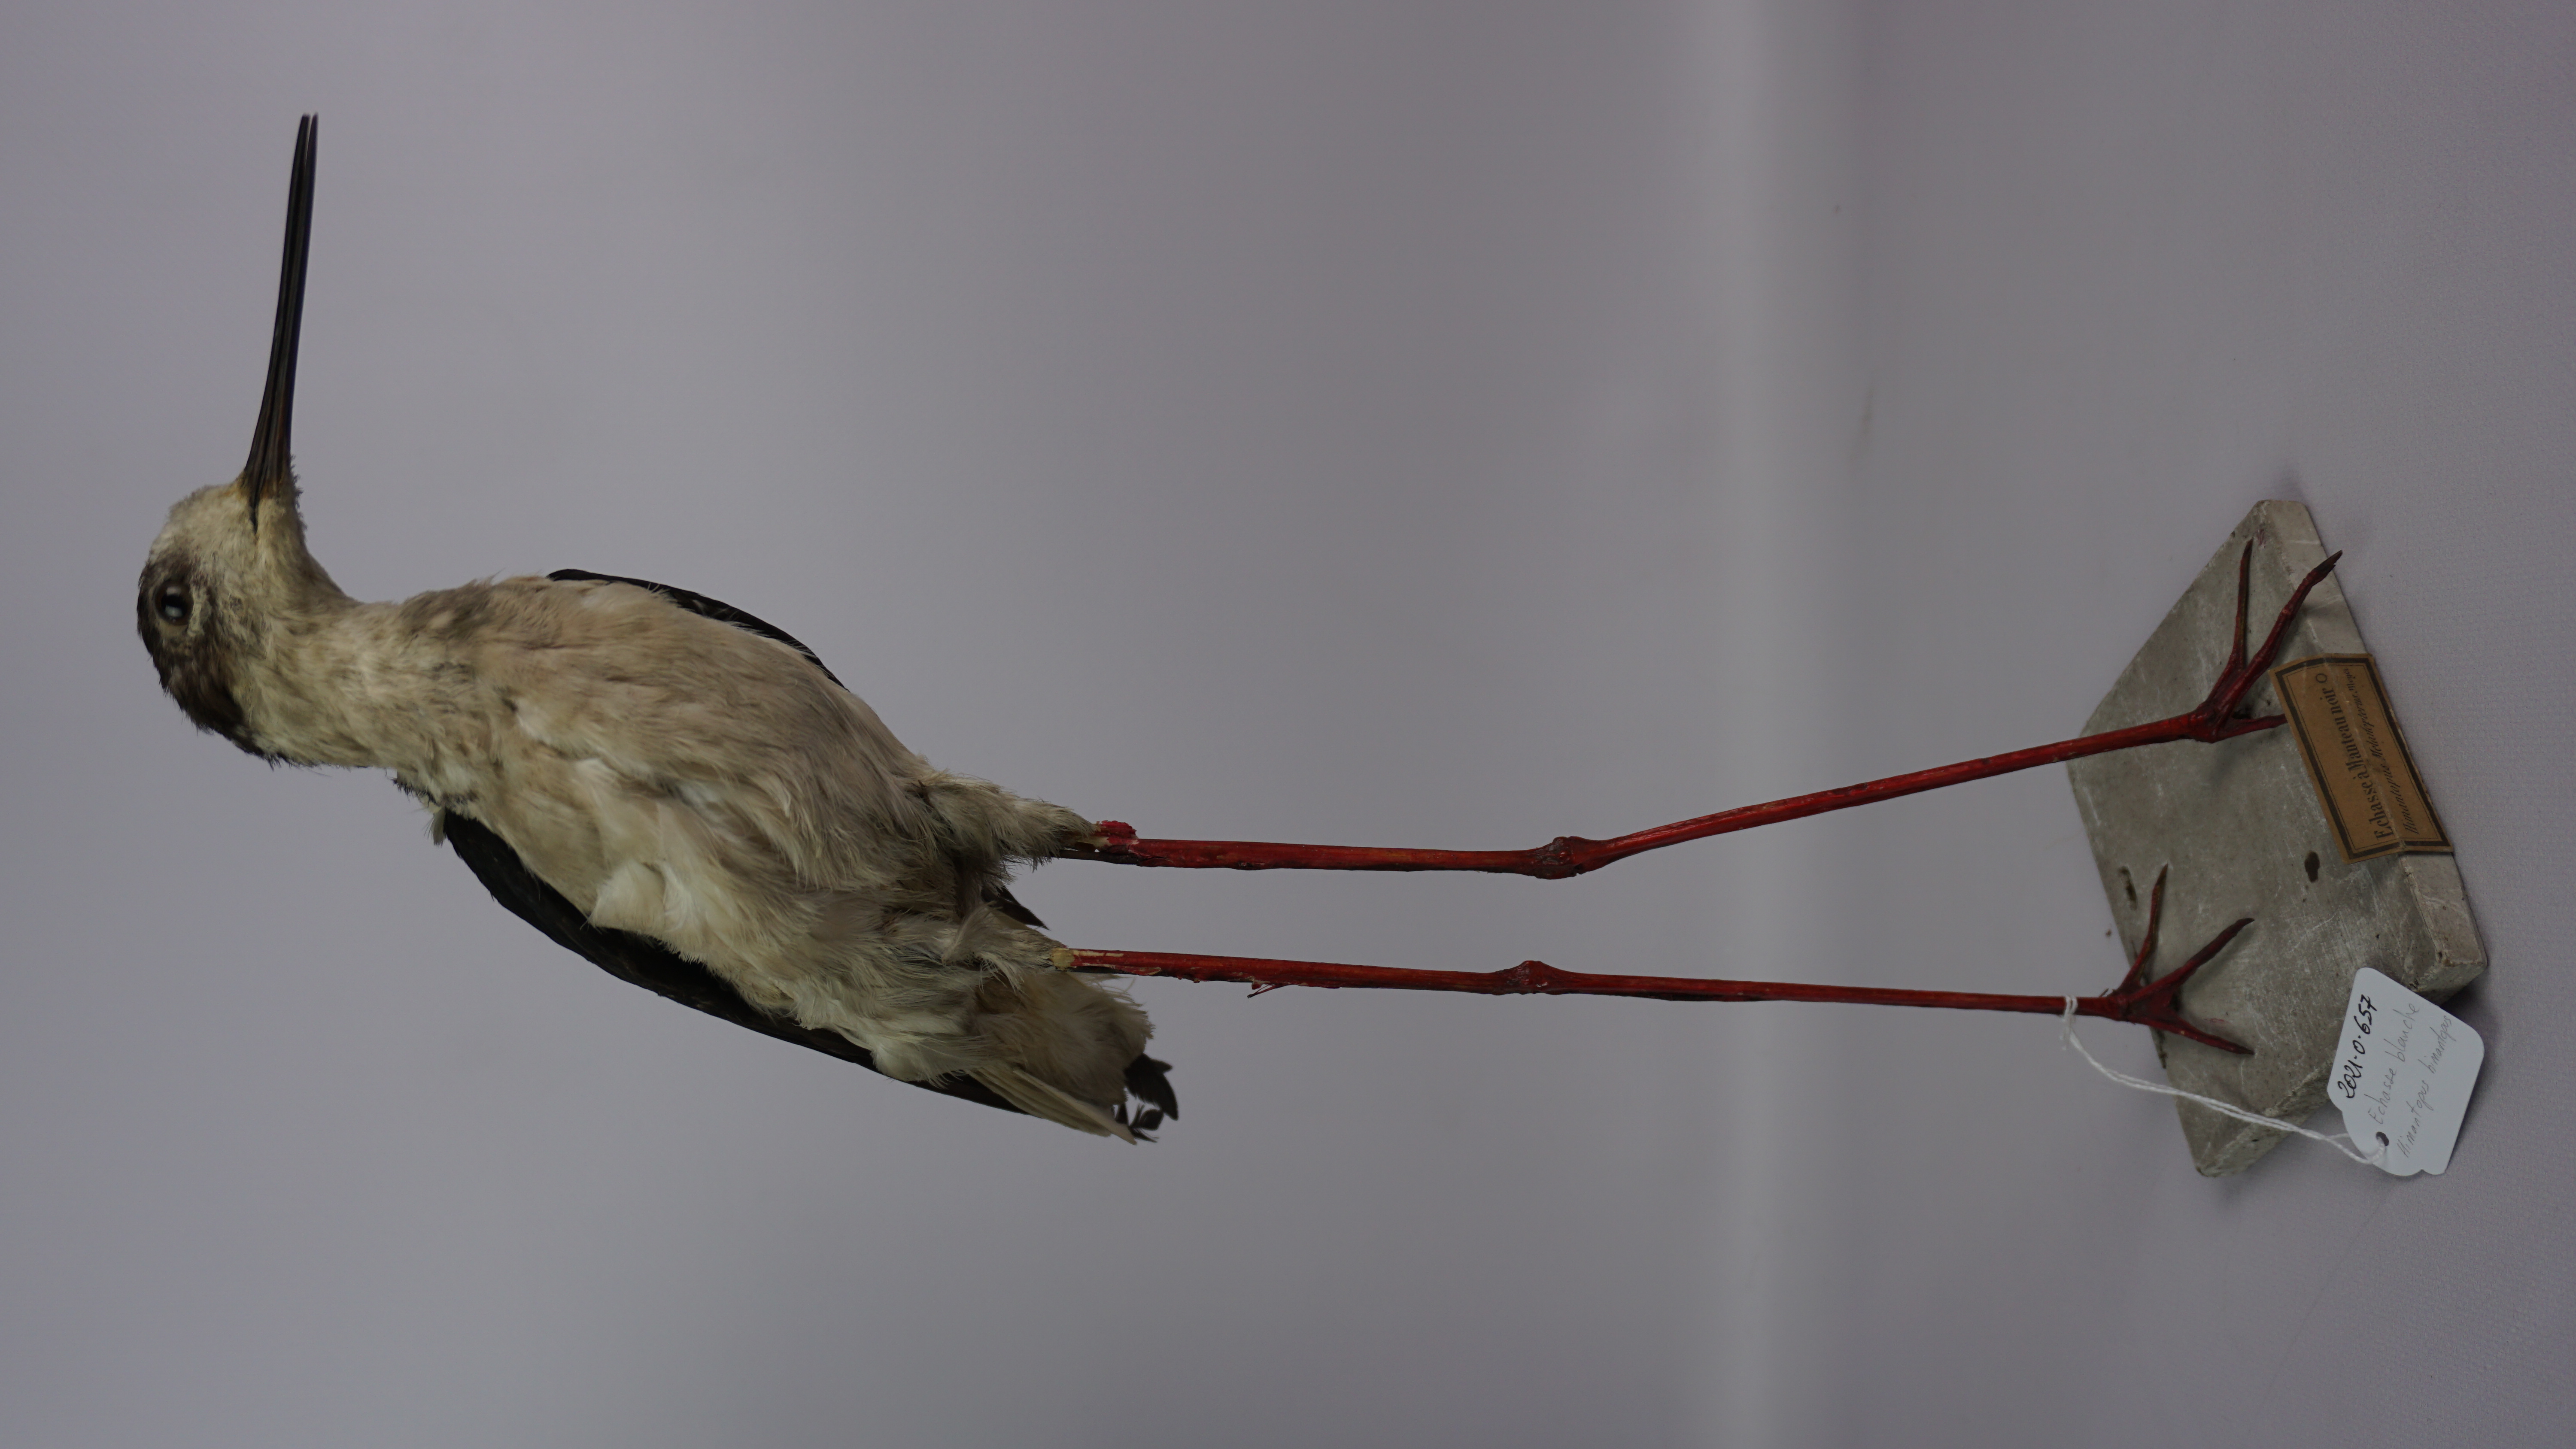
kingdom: Animalia
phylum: Chordata
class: Aves
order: Charadriiformes
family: Recurvirostridae
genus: Himantopus
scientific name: Himantopus himantopus
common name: Black-winged stilt
